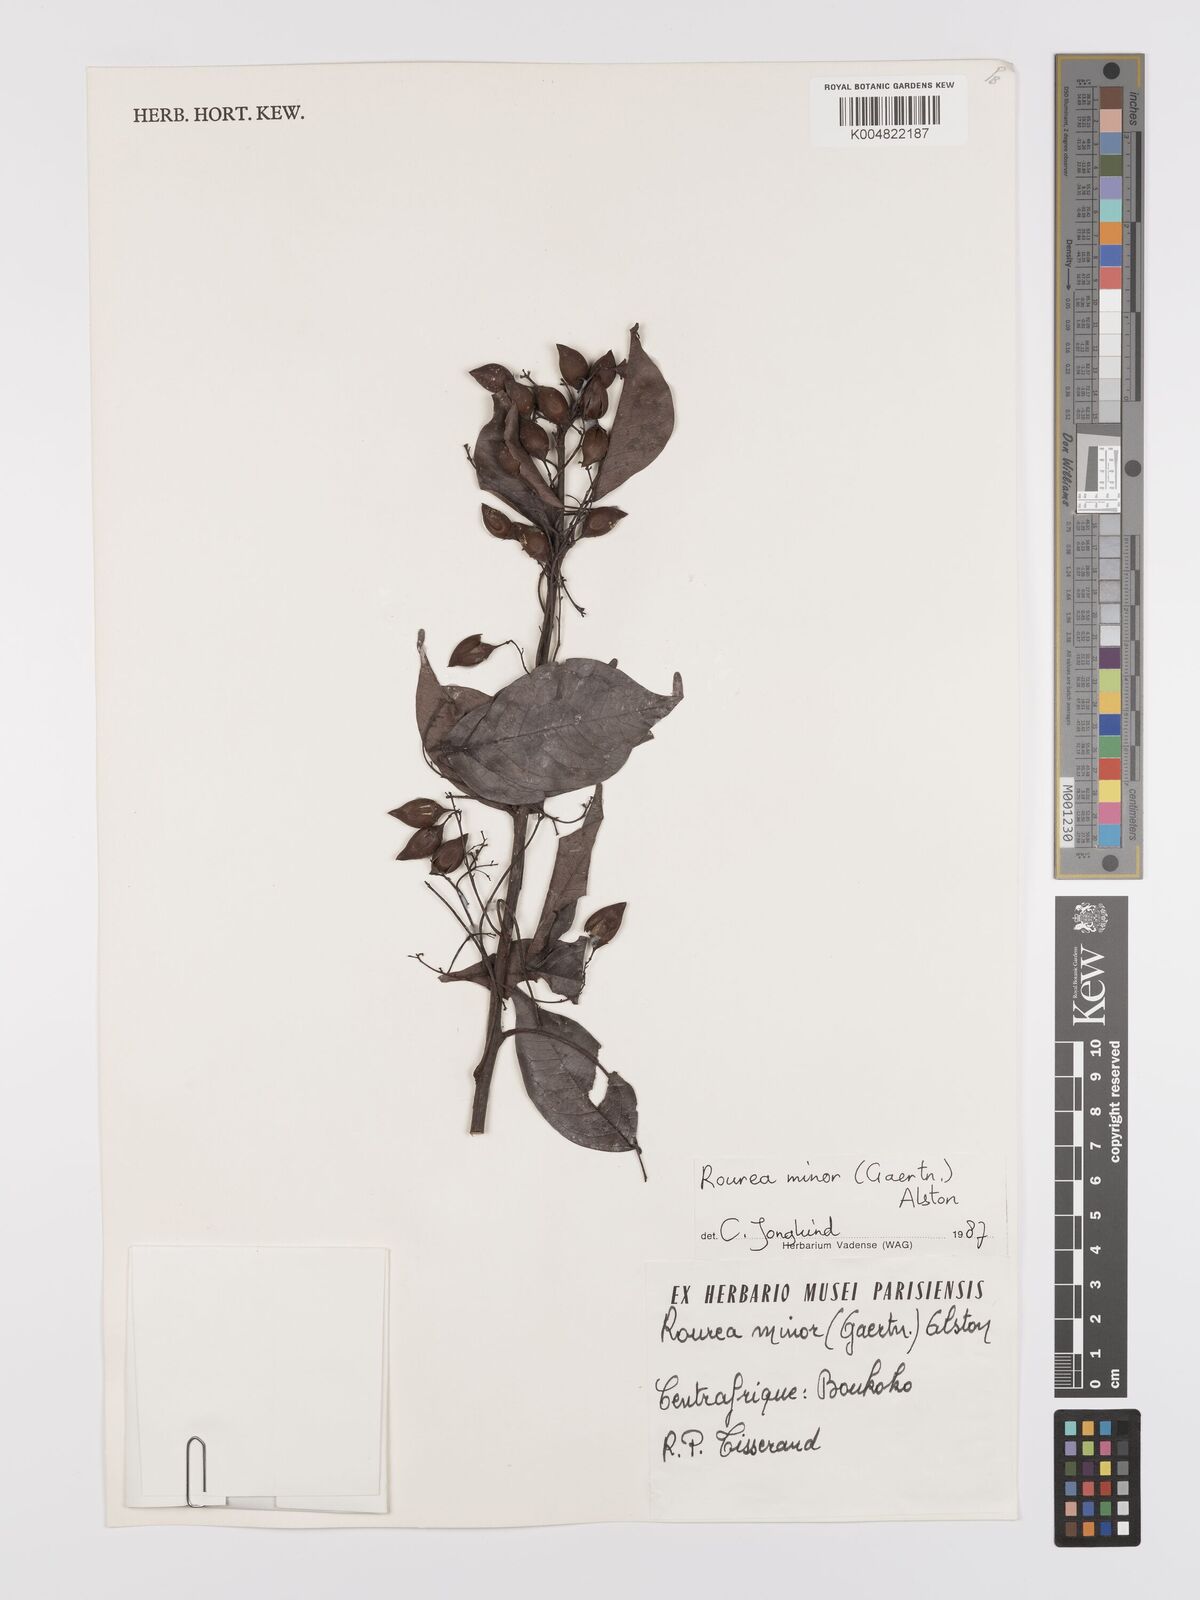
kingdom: Plantae
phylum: Tracheophyta
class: Magnoliopsida
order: Oxalidales
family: Connaraceae
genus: Rourea
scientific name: Rourea minor
